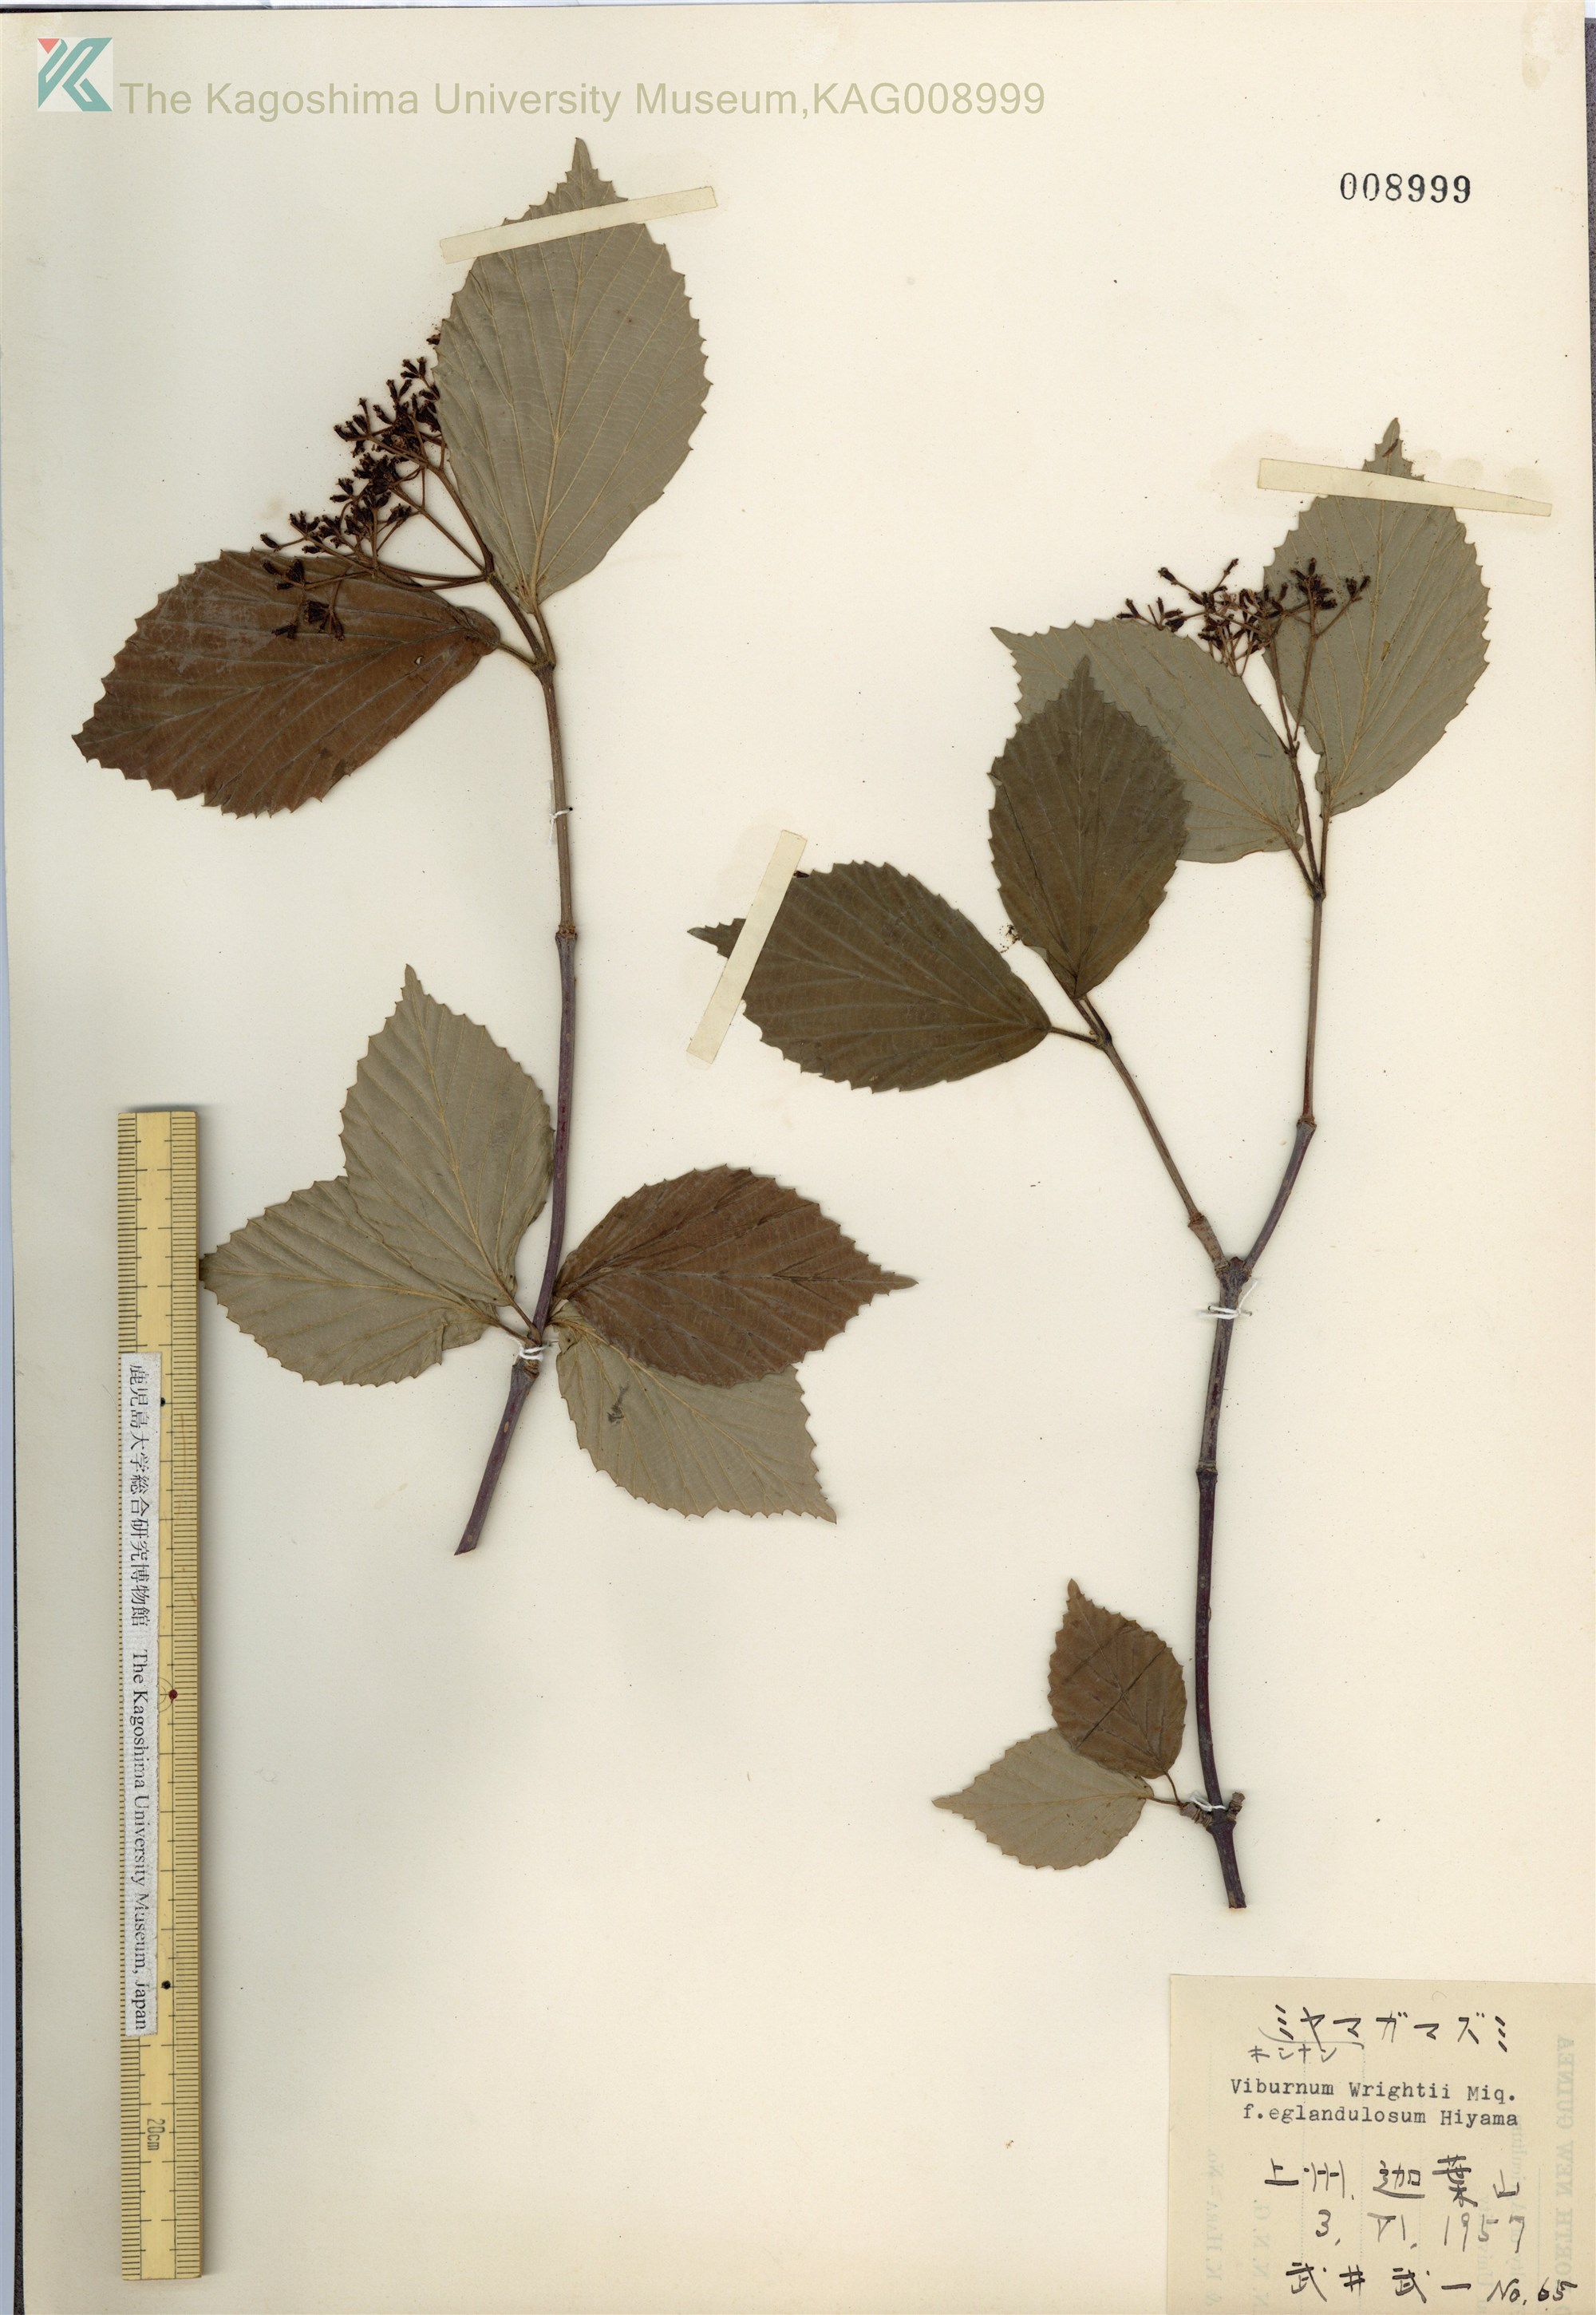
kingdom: Plantae
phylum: Tracheophyta
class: Magnoliopsida
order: Dipsacales
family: Viburnaceae
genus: Viburnum
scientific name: Viburnum wrightii
